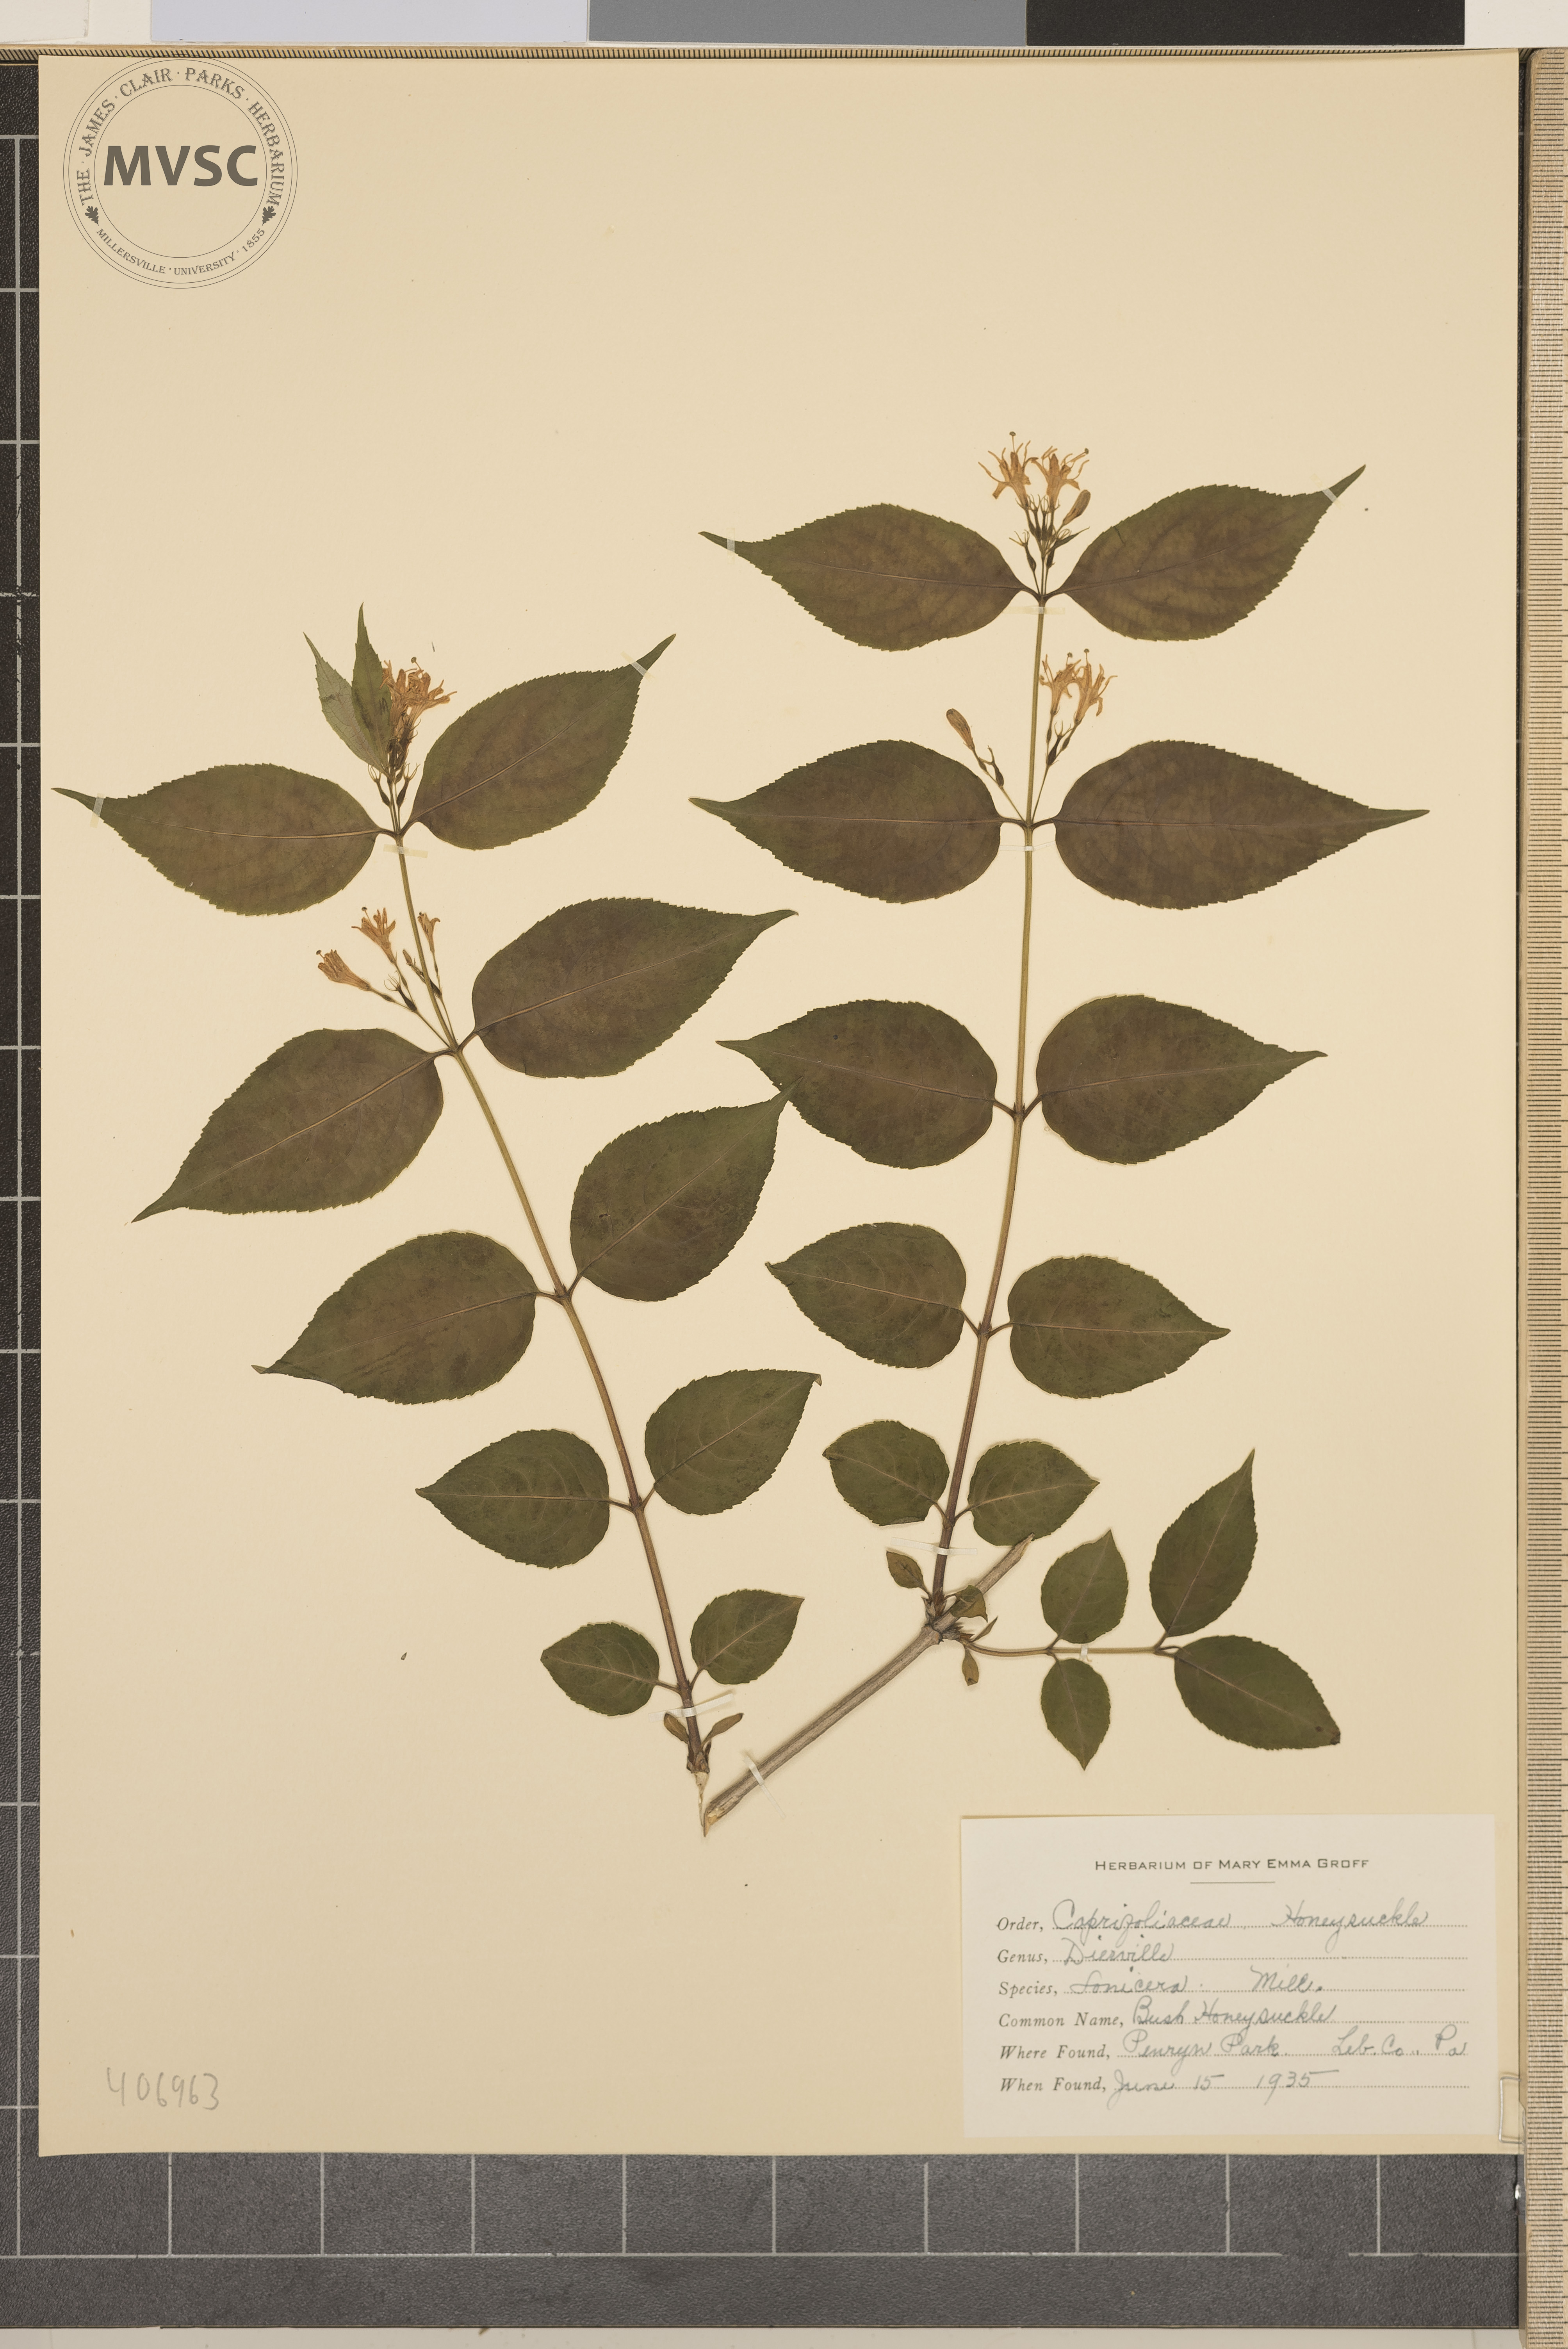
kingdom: Plantae
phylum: Tracheophyta
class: Magnoliopsida
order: Dipsacales
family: Caprifoliaceae
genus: Diervilla
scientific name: Diervilla lonicera
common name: Bush Honeysuckle
